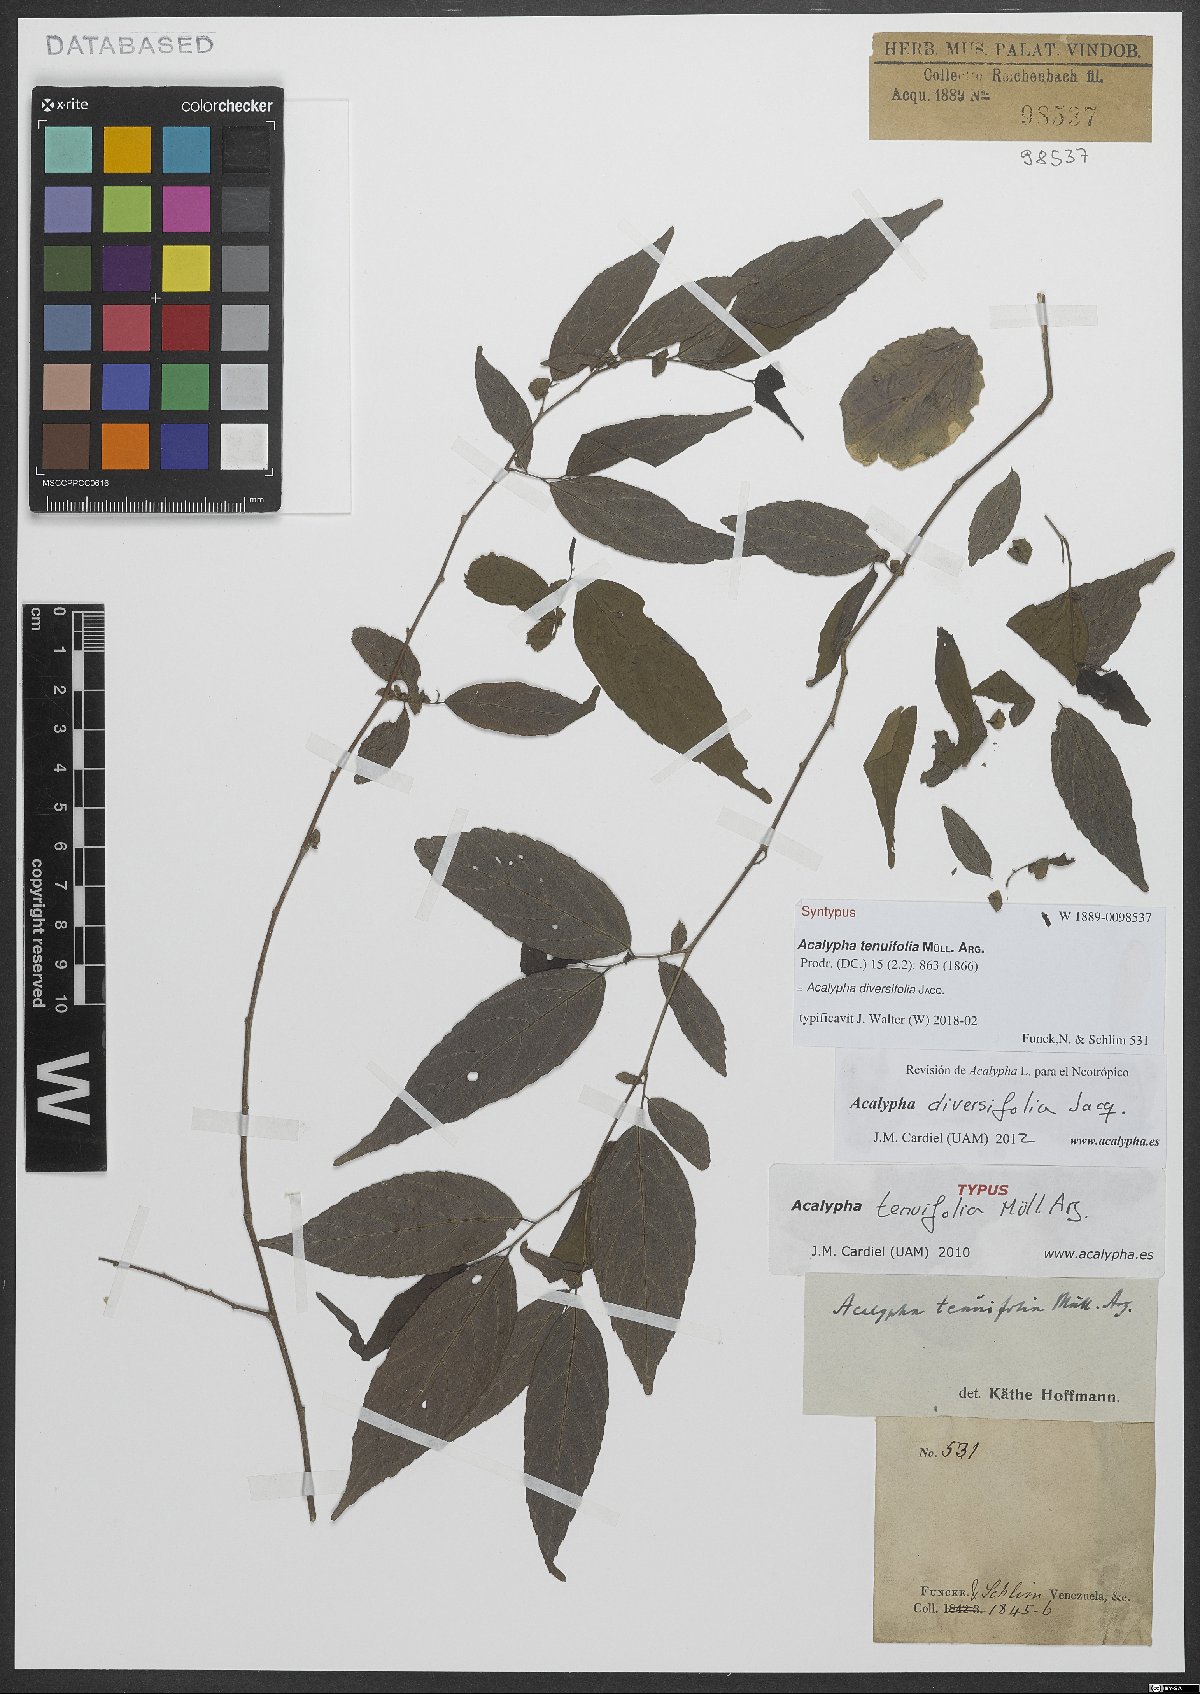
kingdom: Plantae
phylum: Tracheophyta
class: Magnoliopsida
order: Malpighiales
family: Euphorbiaceae
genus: Acalypha
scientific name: Acalypha diversifolia
